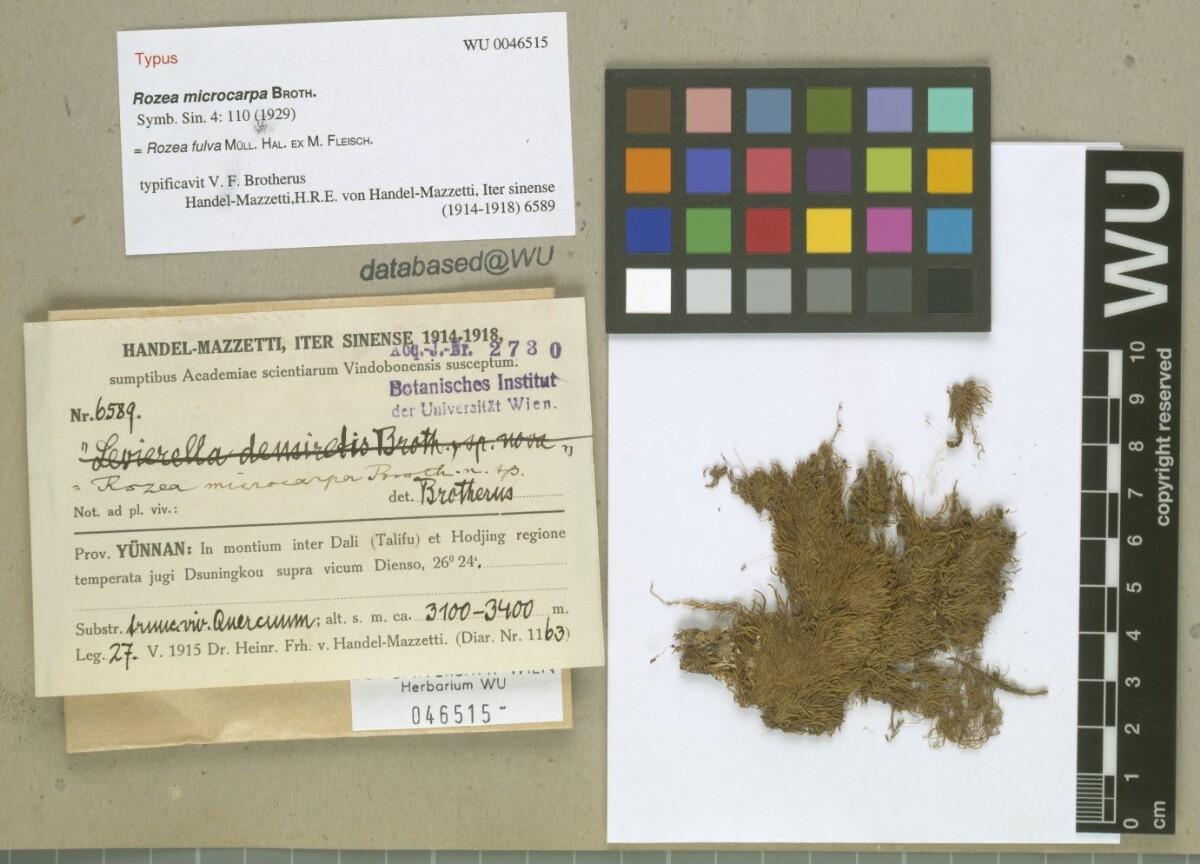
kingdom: Plantae
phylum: Bryophyta
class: Bryopsida
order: Hypnales
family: Leskeaceae
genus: Rozea
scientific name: Rozea fulva
